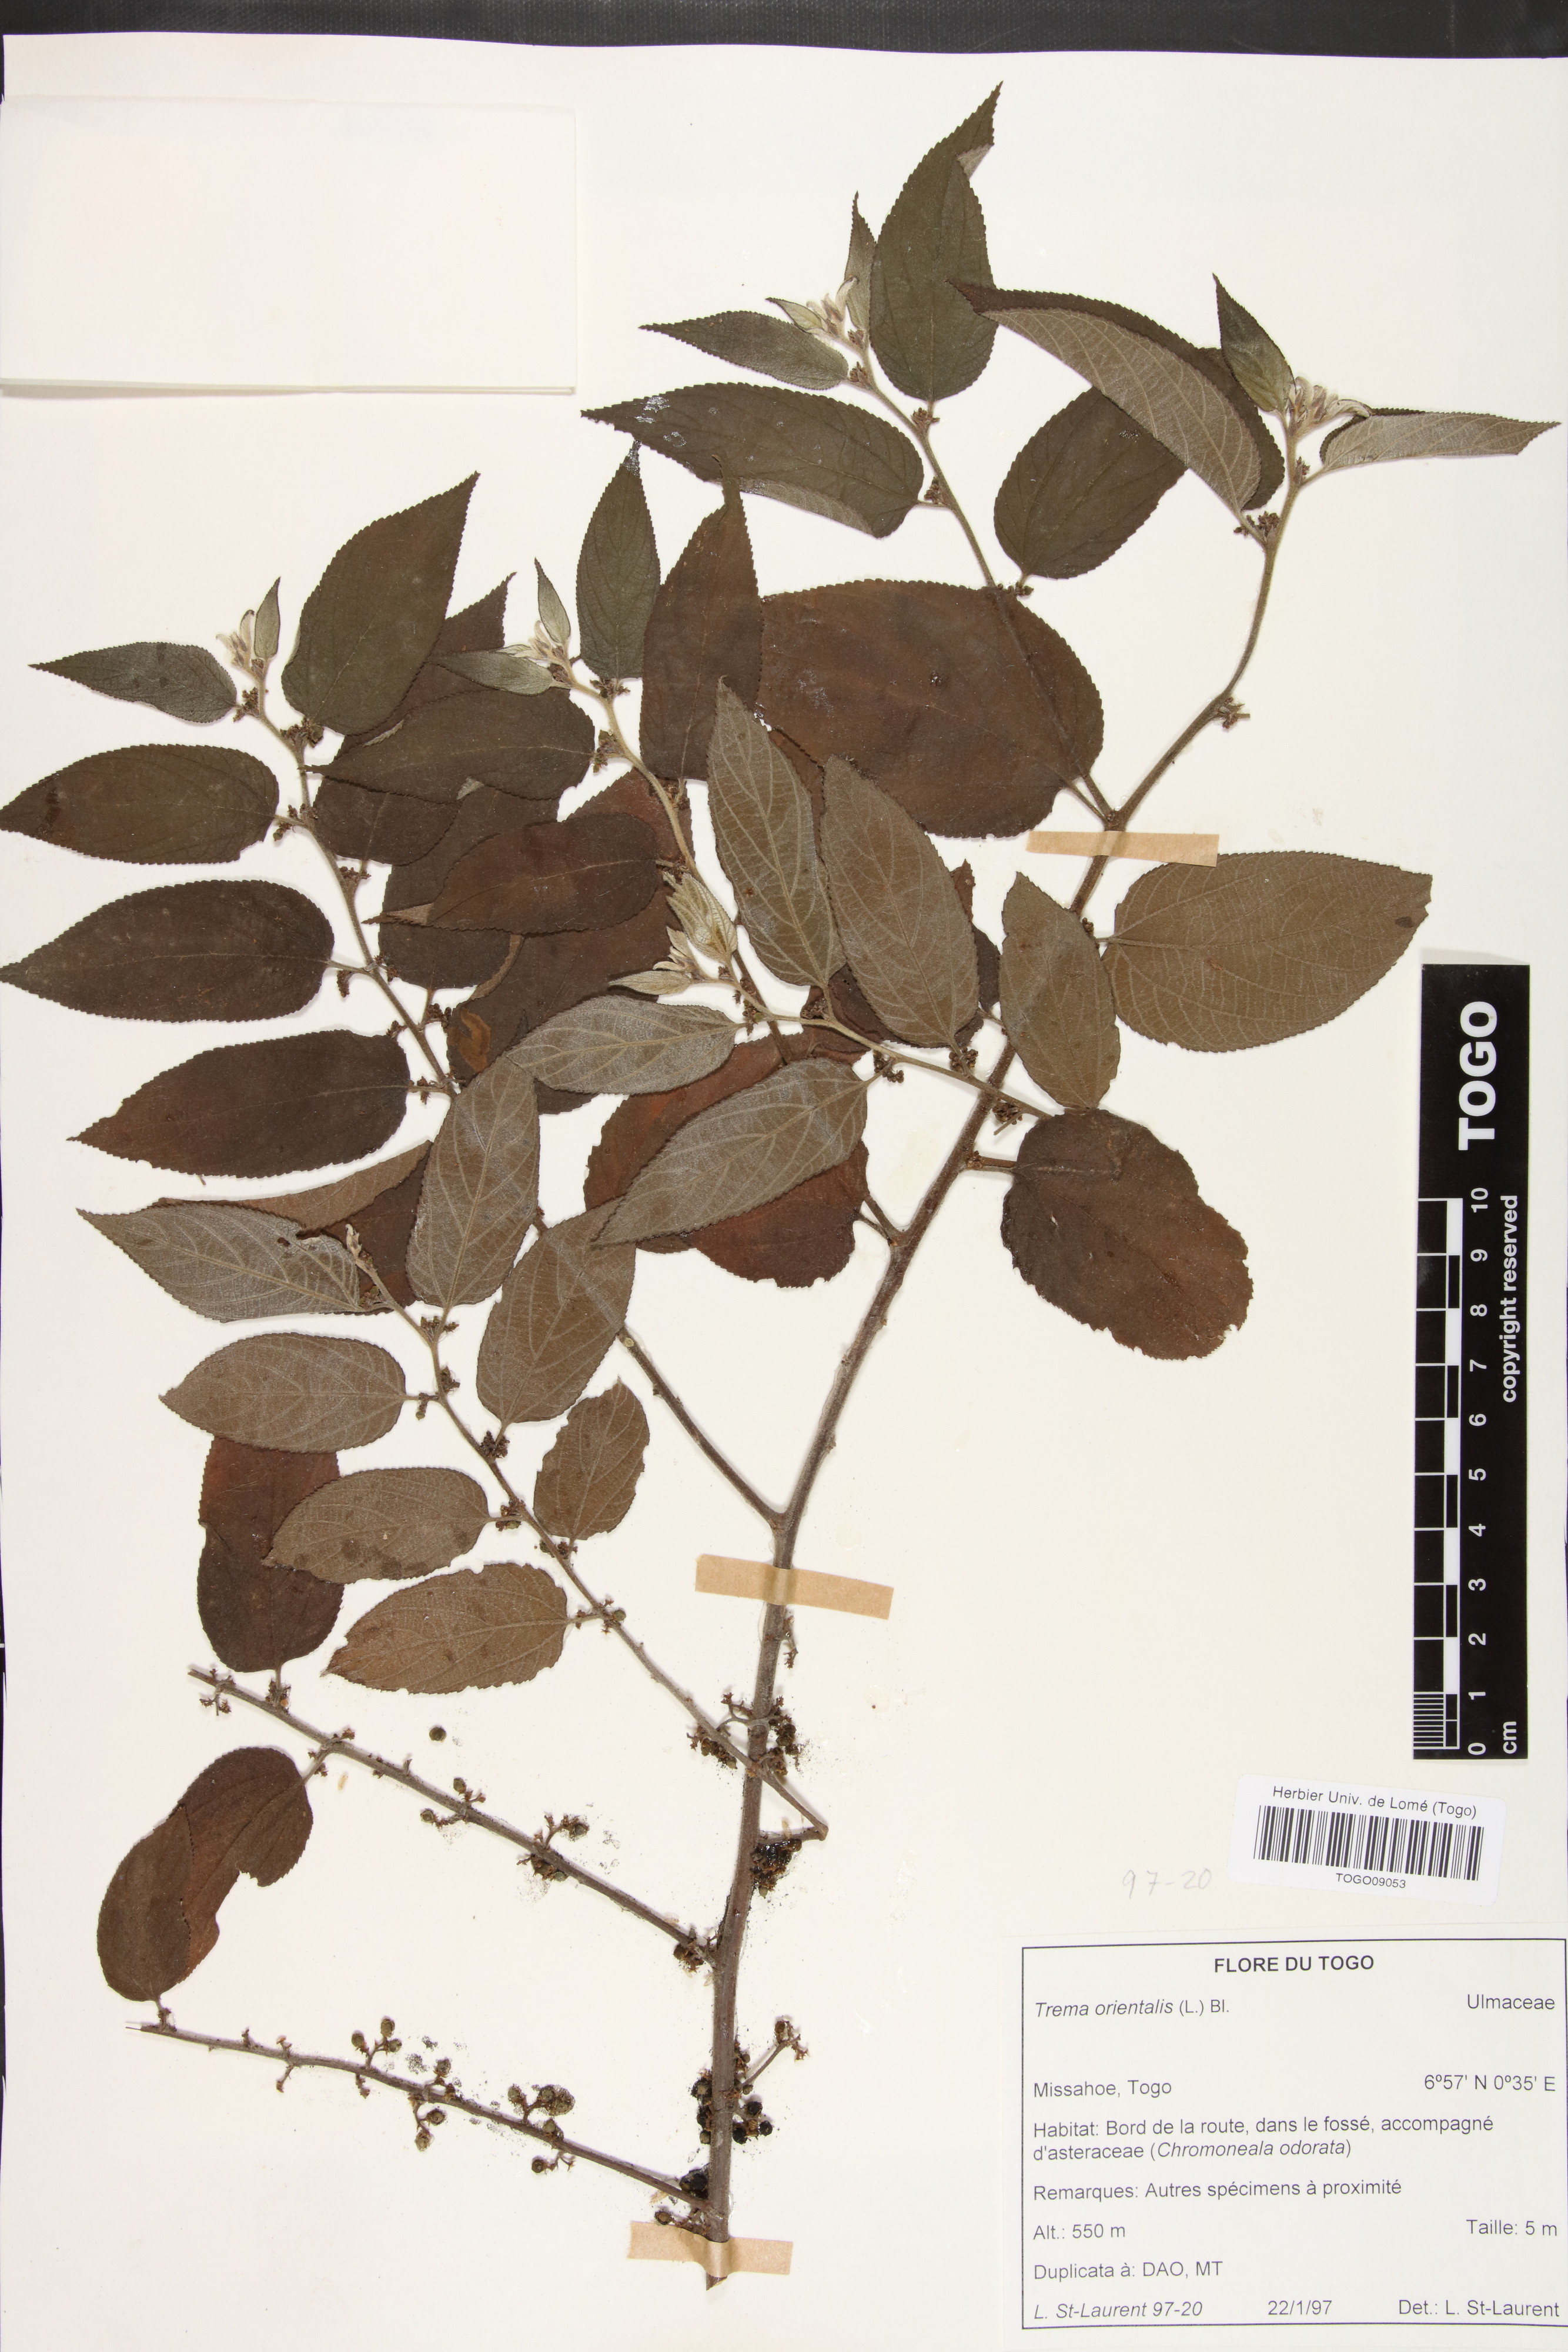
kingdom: Plantae
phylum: Tracheophyta
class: Magnoliopsida
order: Rosales
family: Cannabaceae
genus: Trema
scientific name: Trema orientale
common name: Indian charcoal tree
